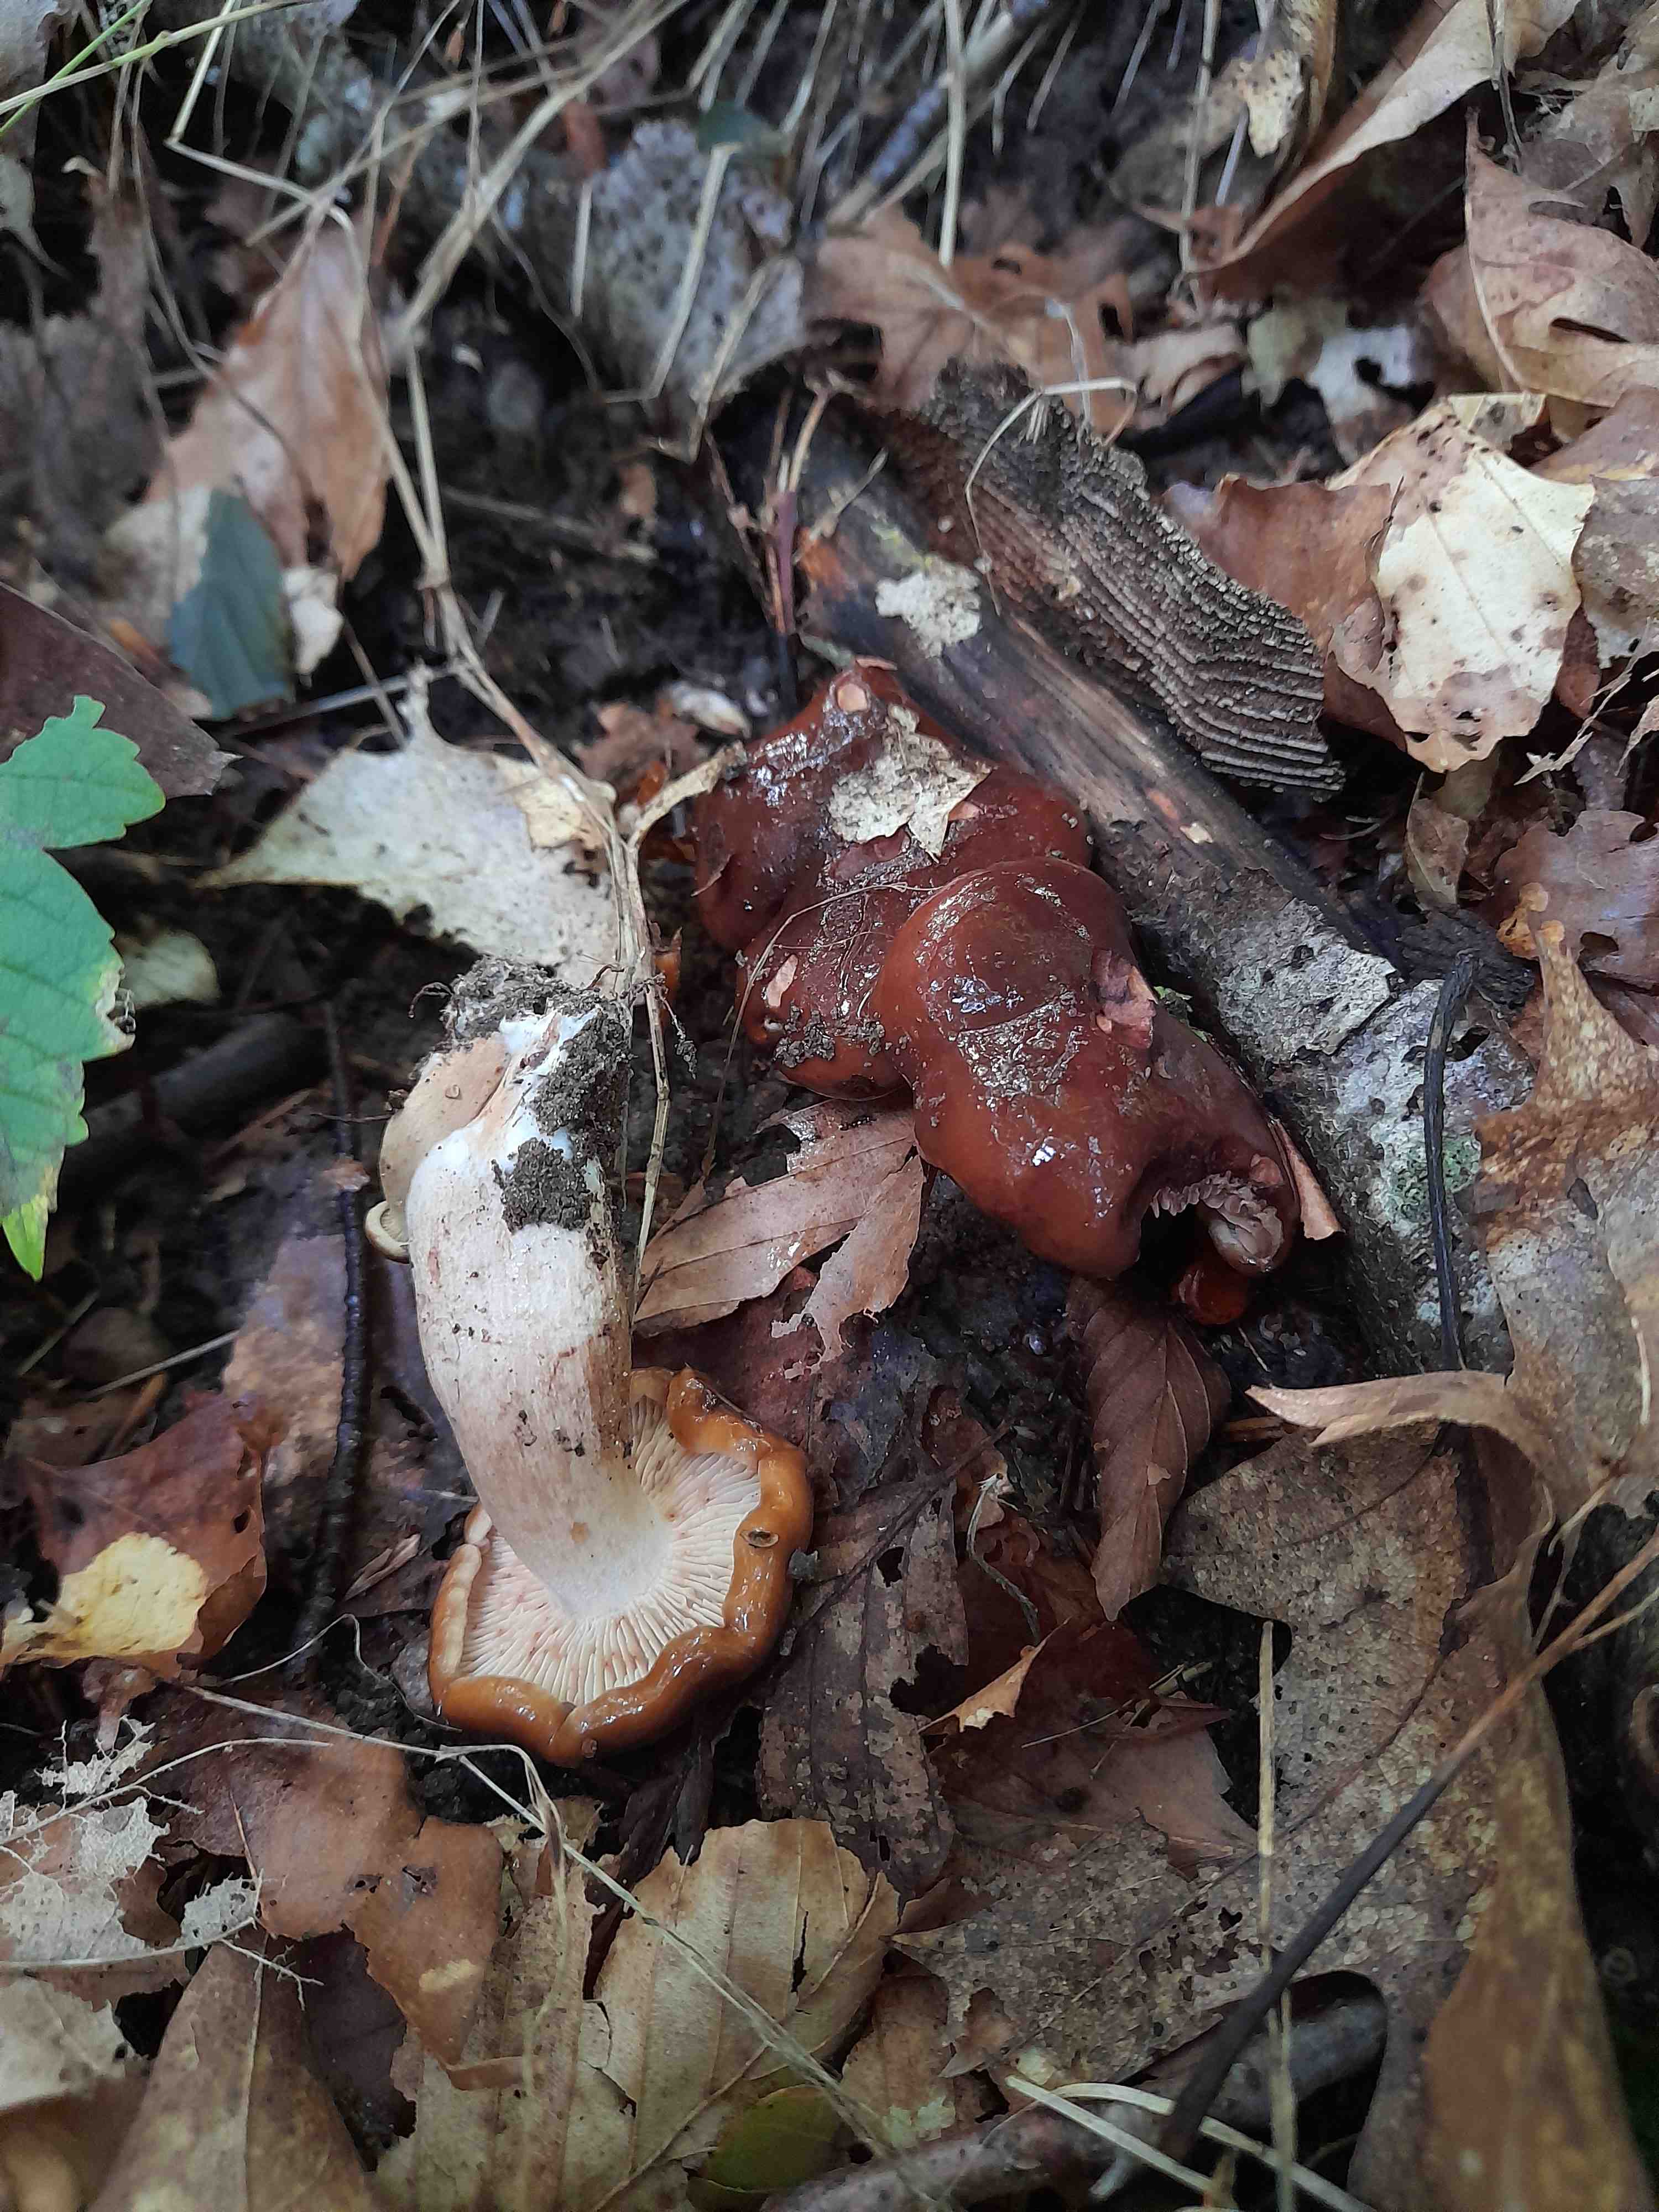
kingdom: Fungi
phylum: Basidiomycota
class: Agaricomycetes
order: Agaricales
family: Tricholomataceae
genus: Tricholoma
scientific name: Tricholoma ustale
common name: sveden ridderhat
